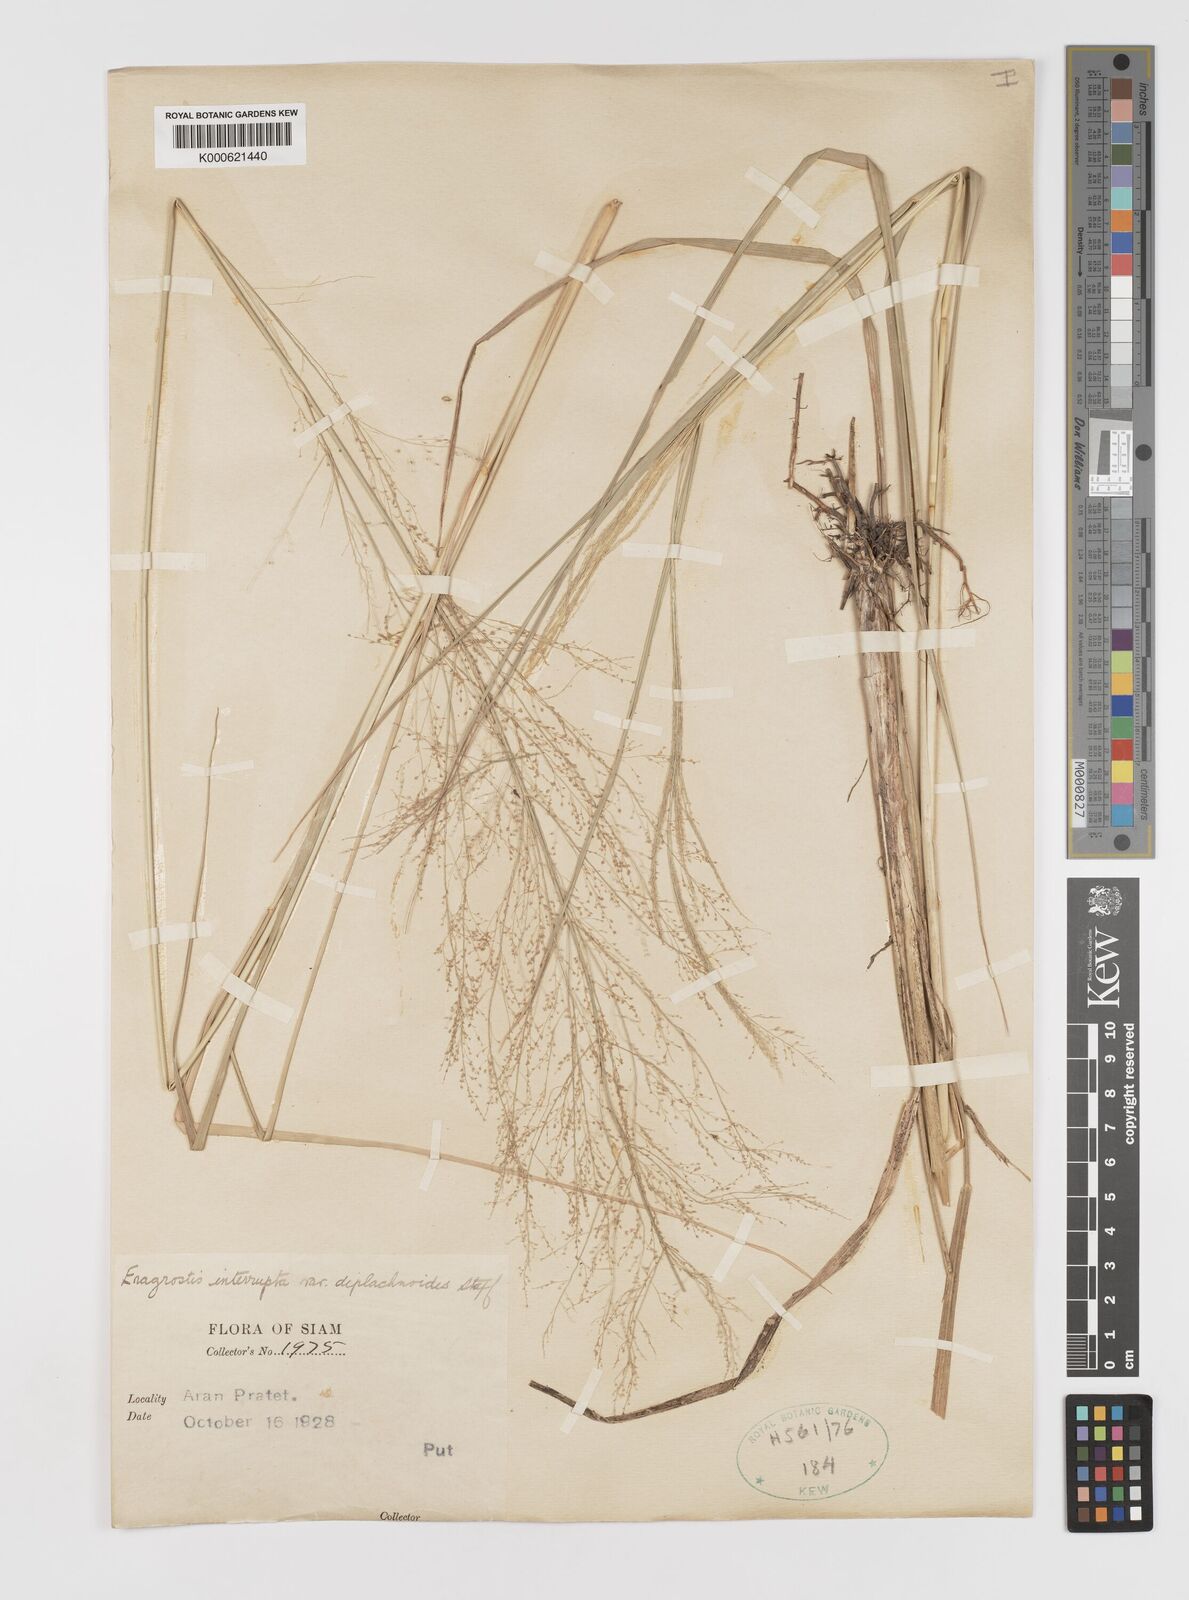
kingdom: Plantae
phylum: Tracheophyta
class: Liliopsida
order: Poales
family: Poaceae
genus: Eragrostis
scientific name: Eragrostis japonica
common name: Pond lovegrass
